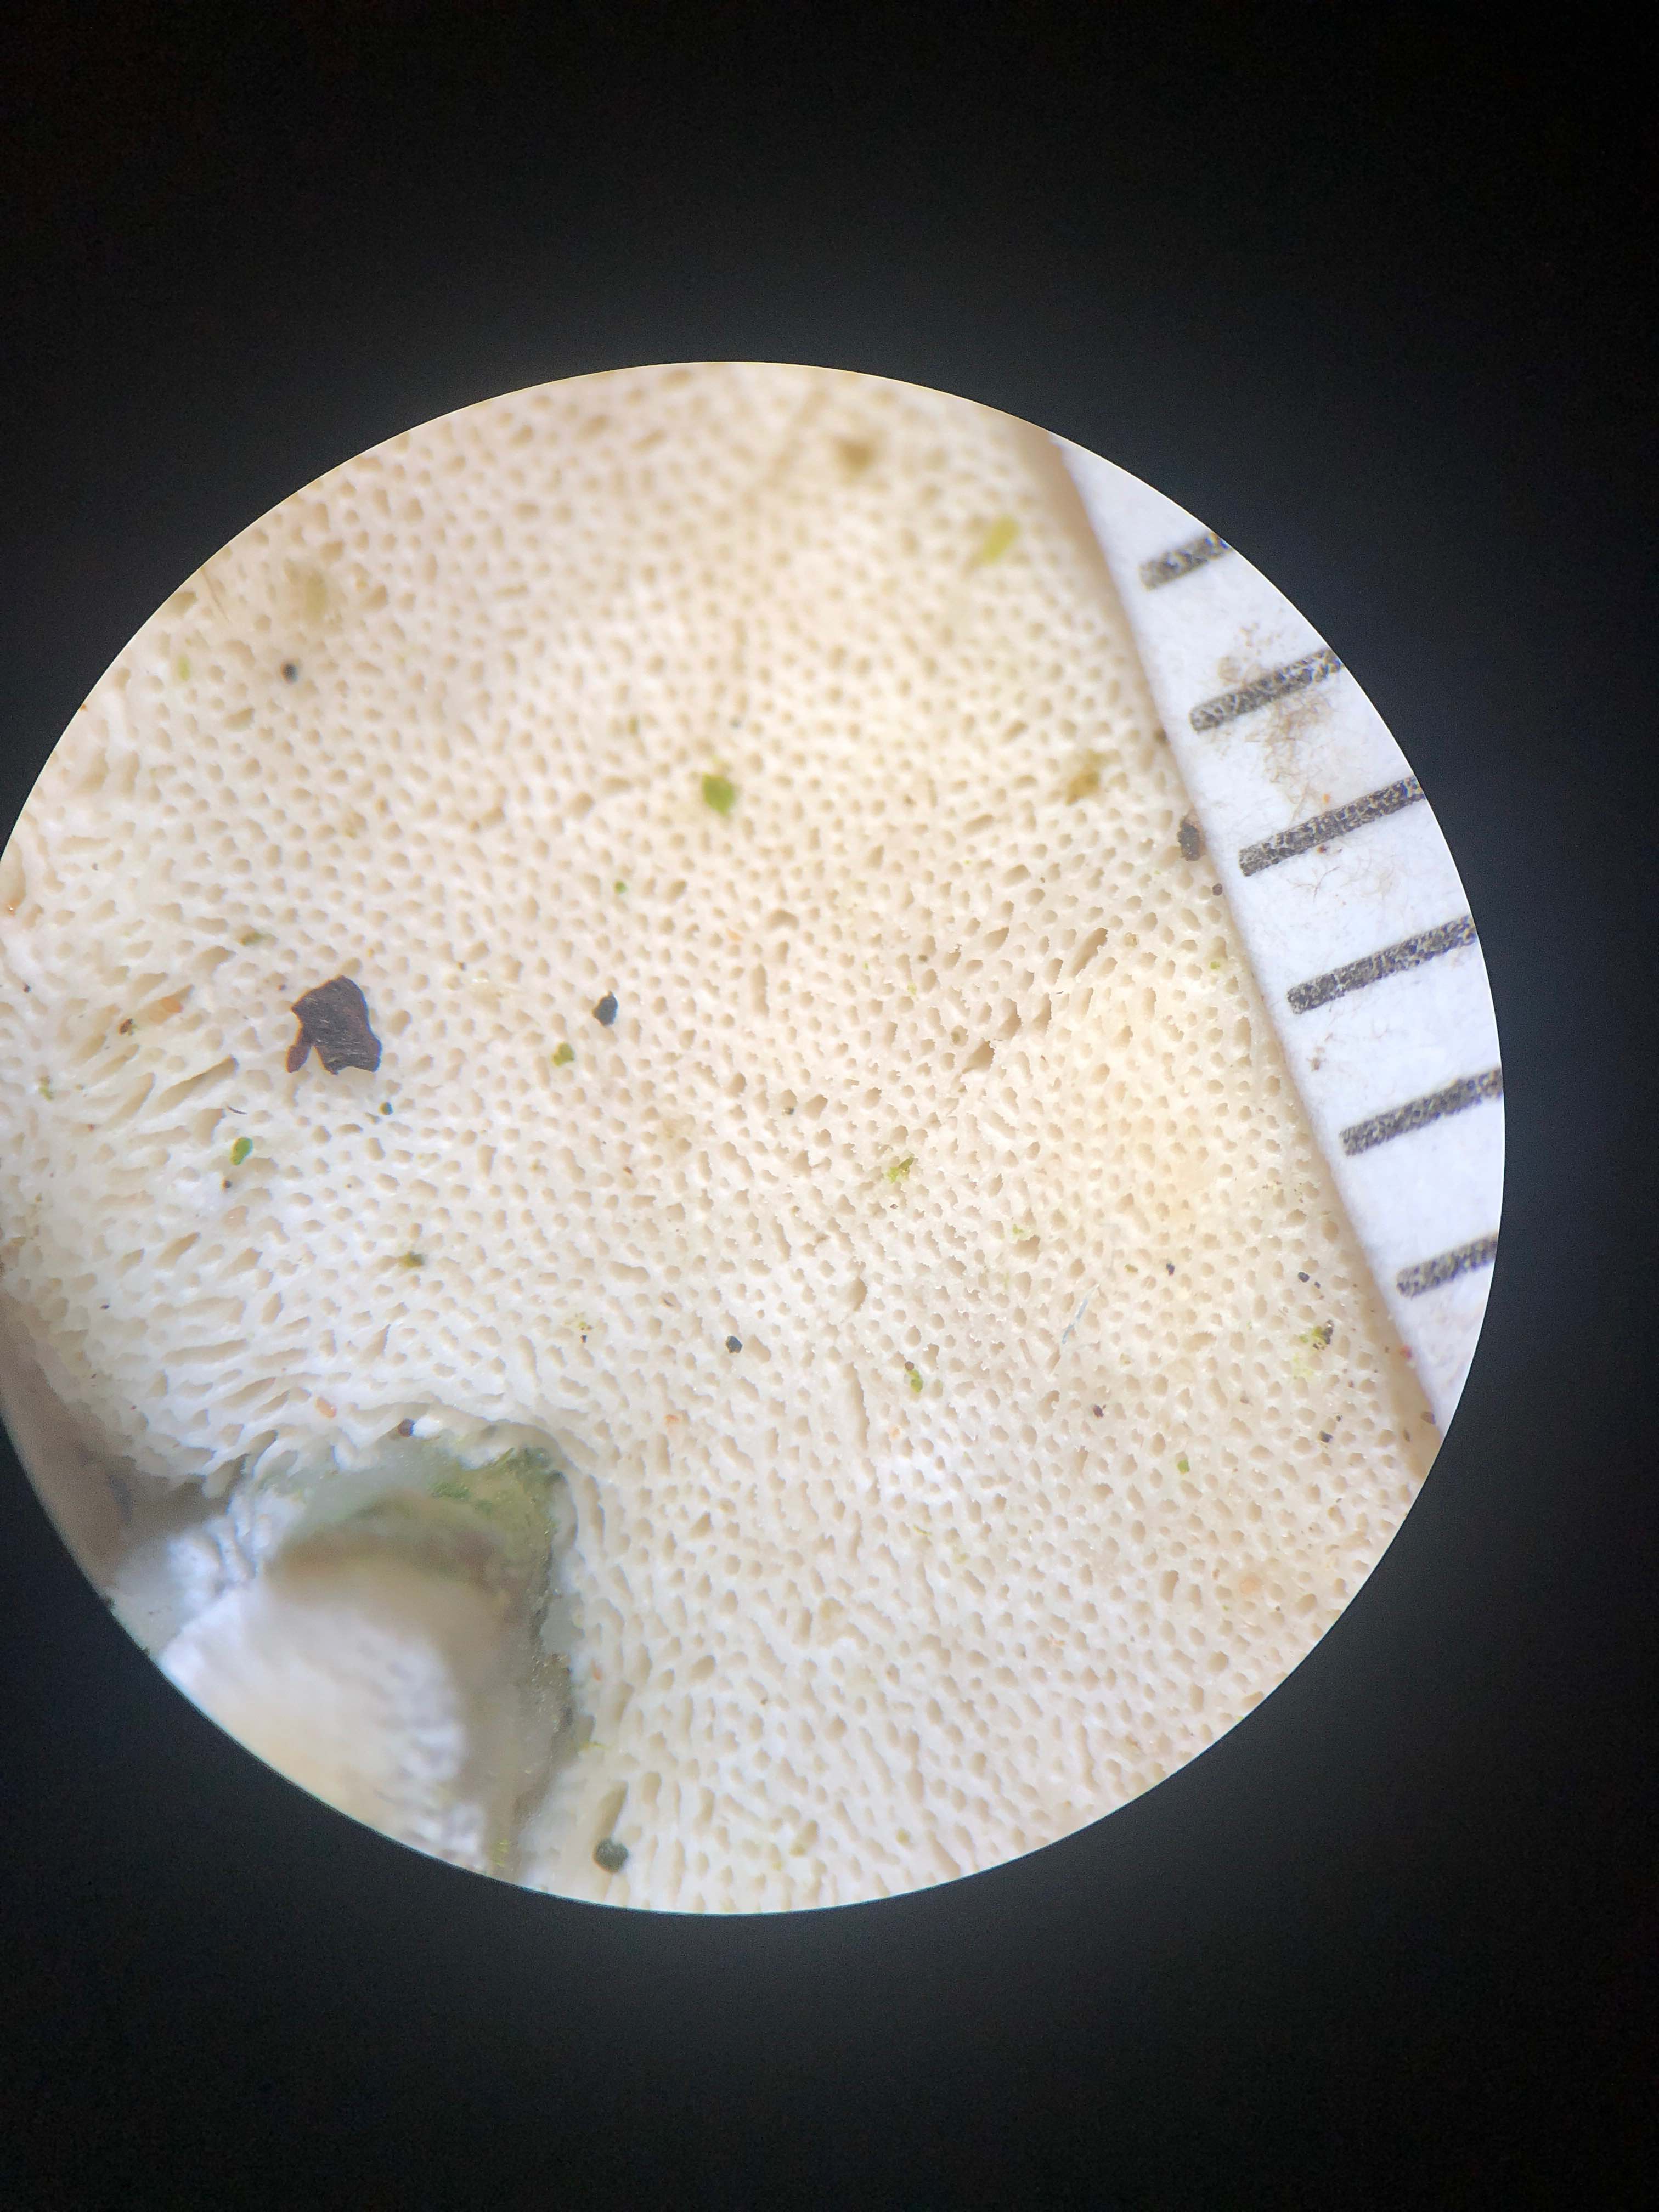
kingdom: Fungi
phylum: Basidiomycota
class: Agaricomycetes
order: Hymenochaetales
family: Oxyporaceae
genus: Oxyporus
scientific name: Oxyporus populinus
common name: sammenvokset trylleporesvamp
